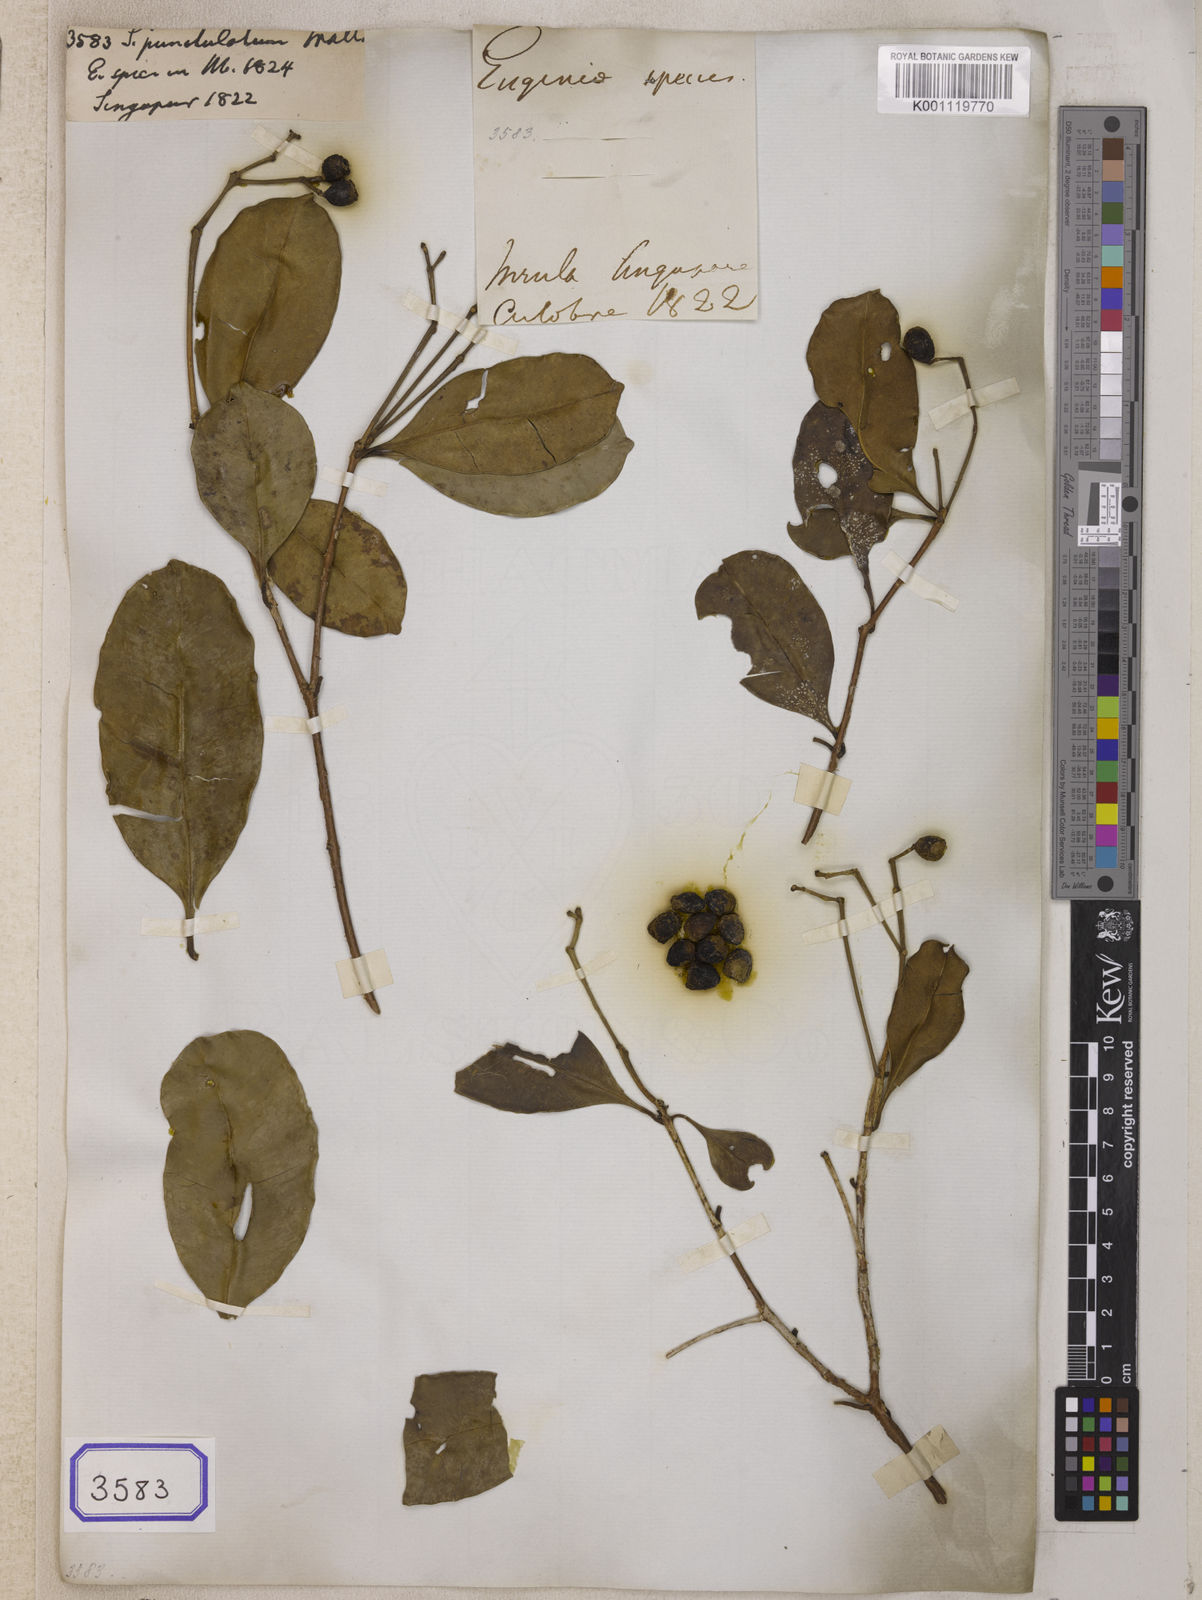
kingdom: Plantae
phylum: Tracheophyta
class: Magnoliopsida
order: Myrtales
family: Myrtaceae
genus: Syzygium
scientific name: Syzygium
